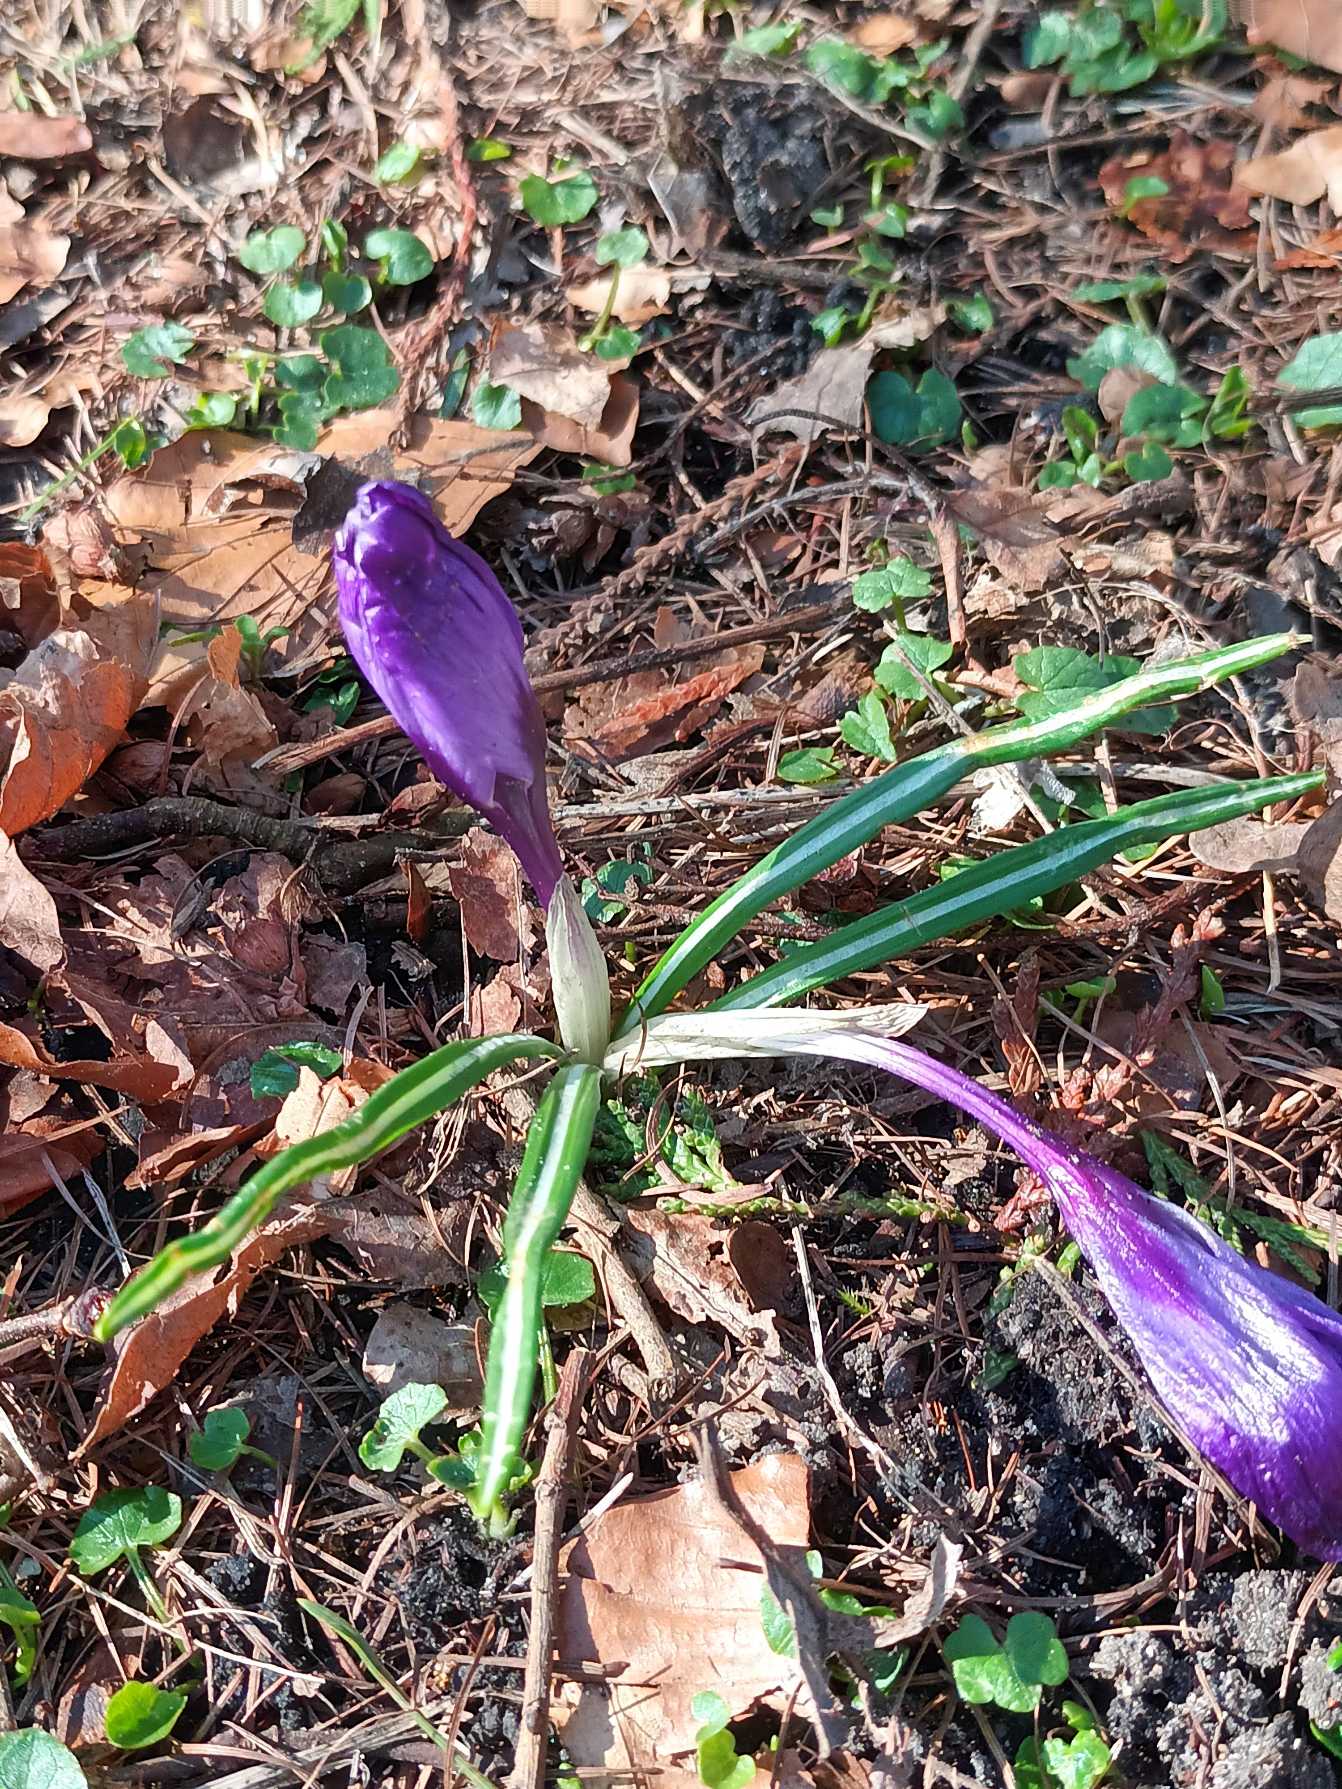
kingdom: Plantae
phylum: Tracheophyta
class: Liliopsida
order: Asparagales
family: Iridaceae
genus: Crocus
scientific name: Crocus vernus
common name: Vår-krokus
